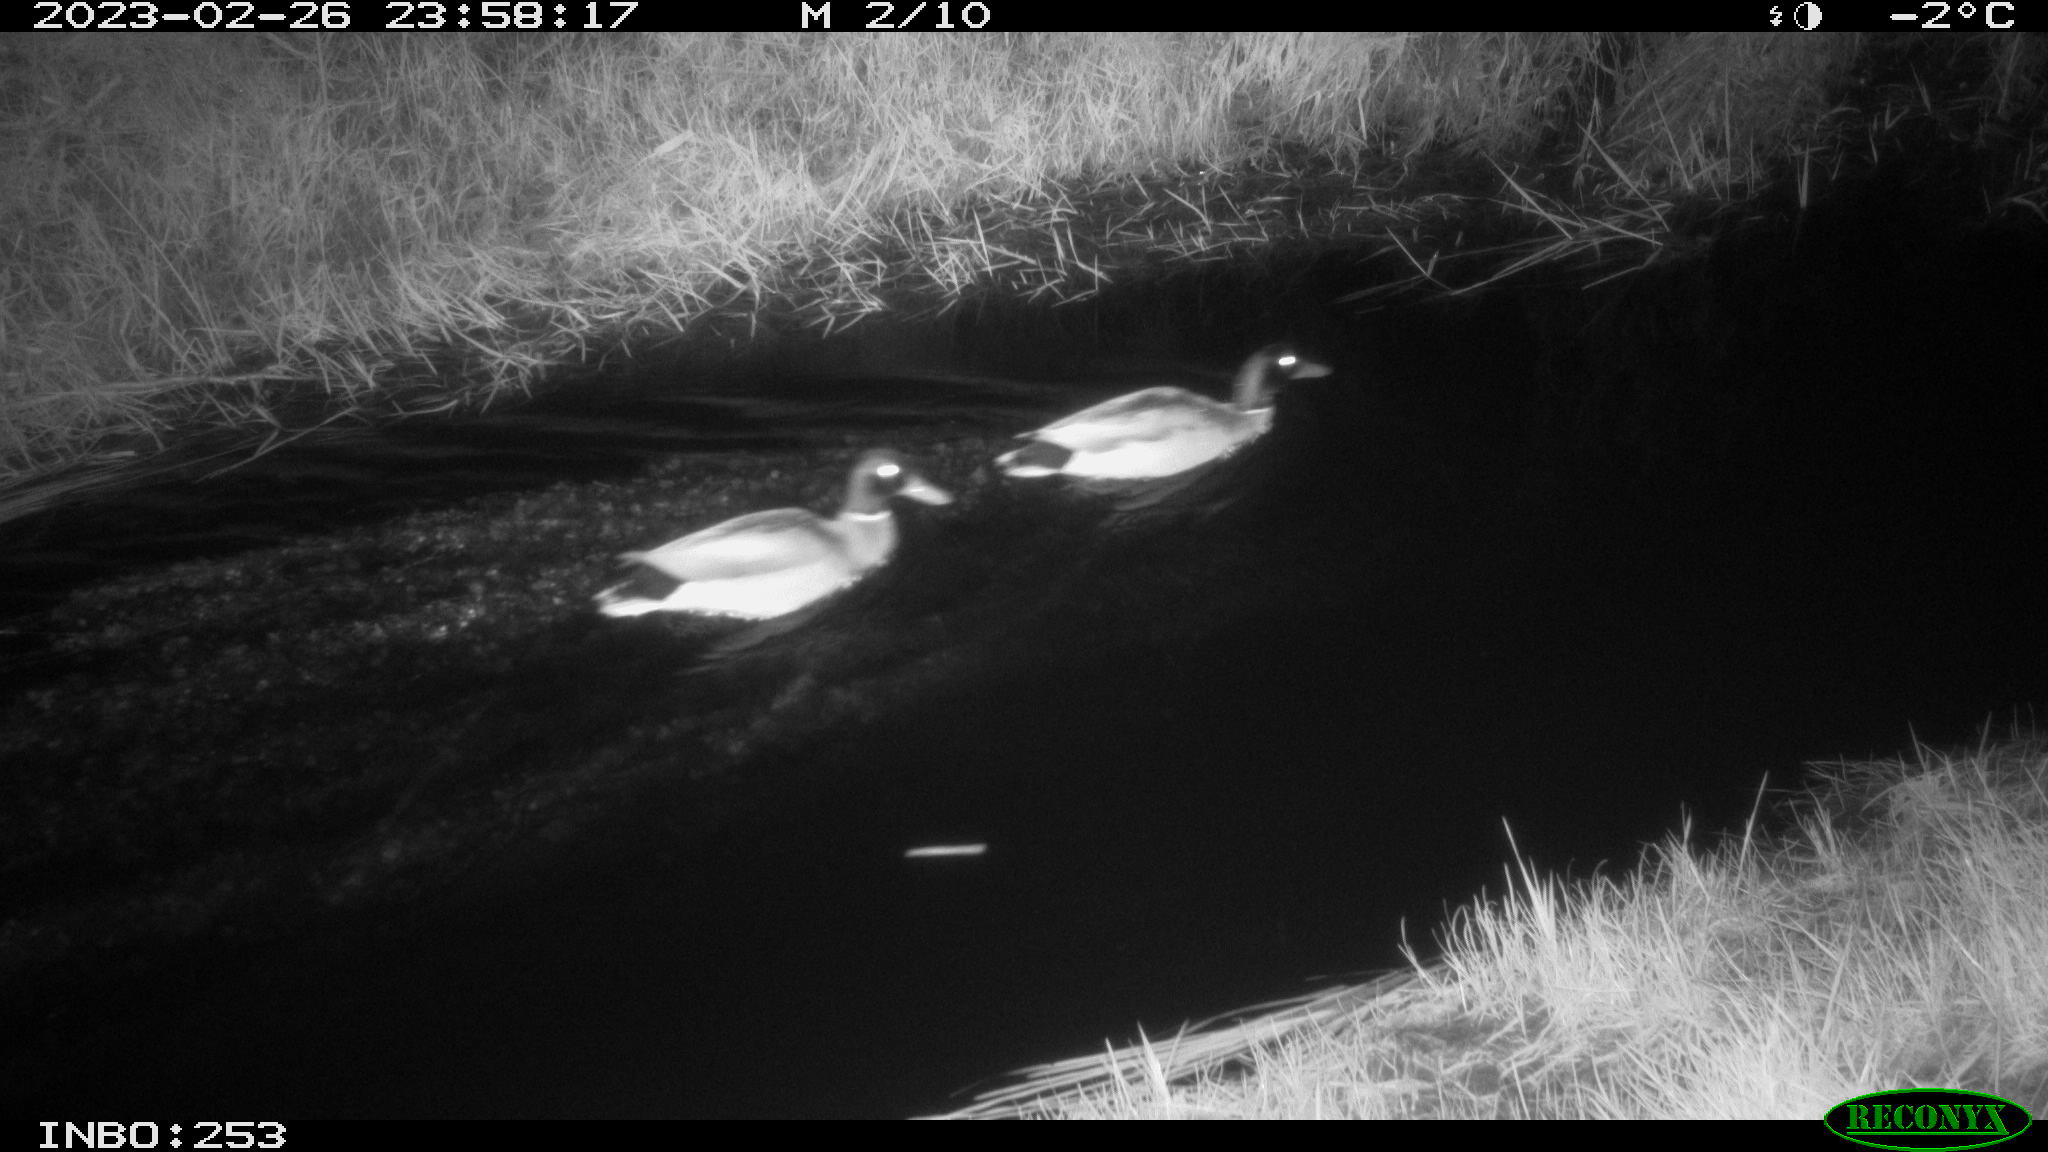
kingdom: Animalia
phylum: Chordata
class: Aves
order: Anseriformes
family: Anatidae
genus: Anas
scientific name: Anas
